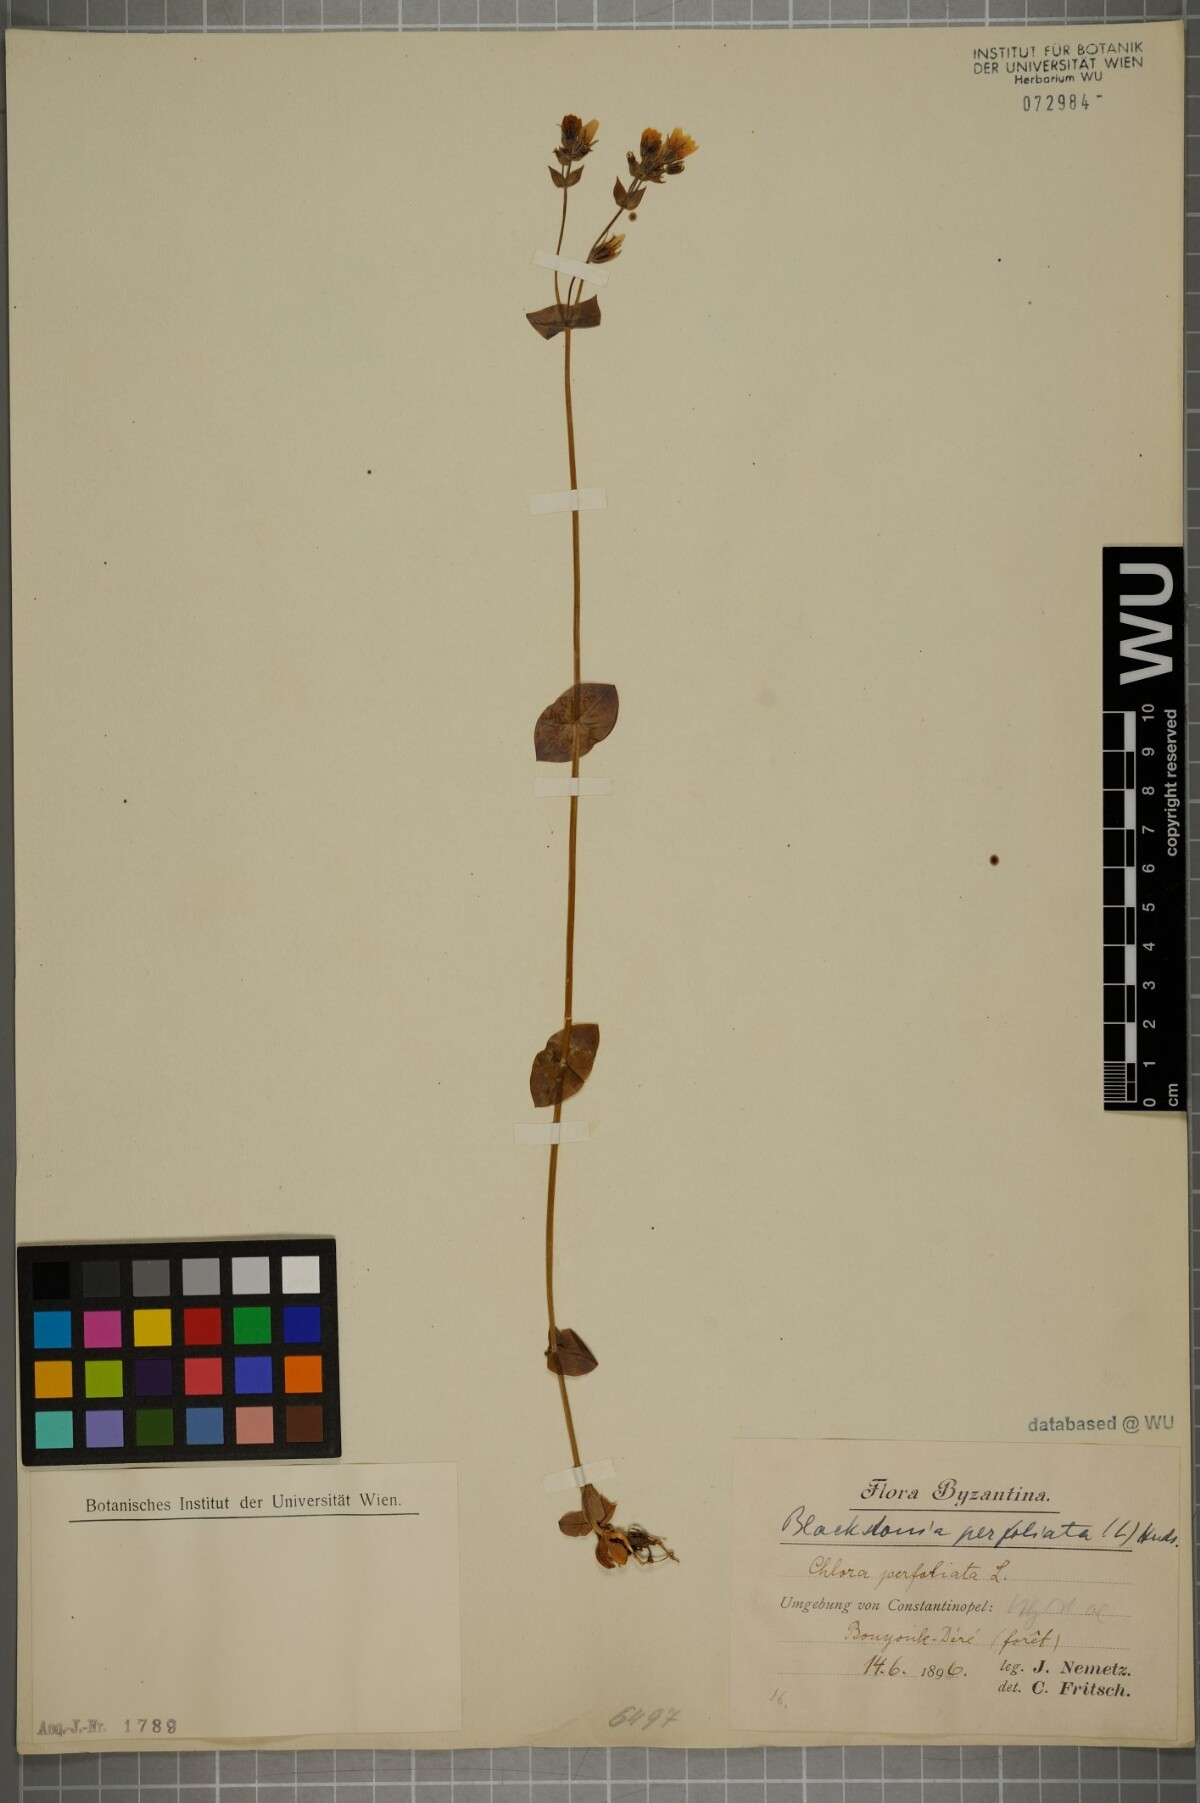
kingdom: Plantae
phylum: Tracheophyta
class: Magnoliopsida
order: Gentianales
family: Gentianaceae
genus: Blackstonia
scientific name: Blackstonia perfoliata
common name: Yellow-wort
